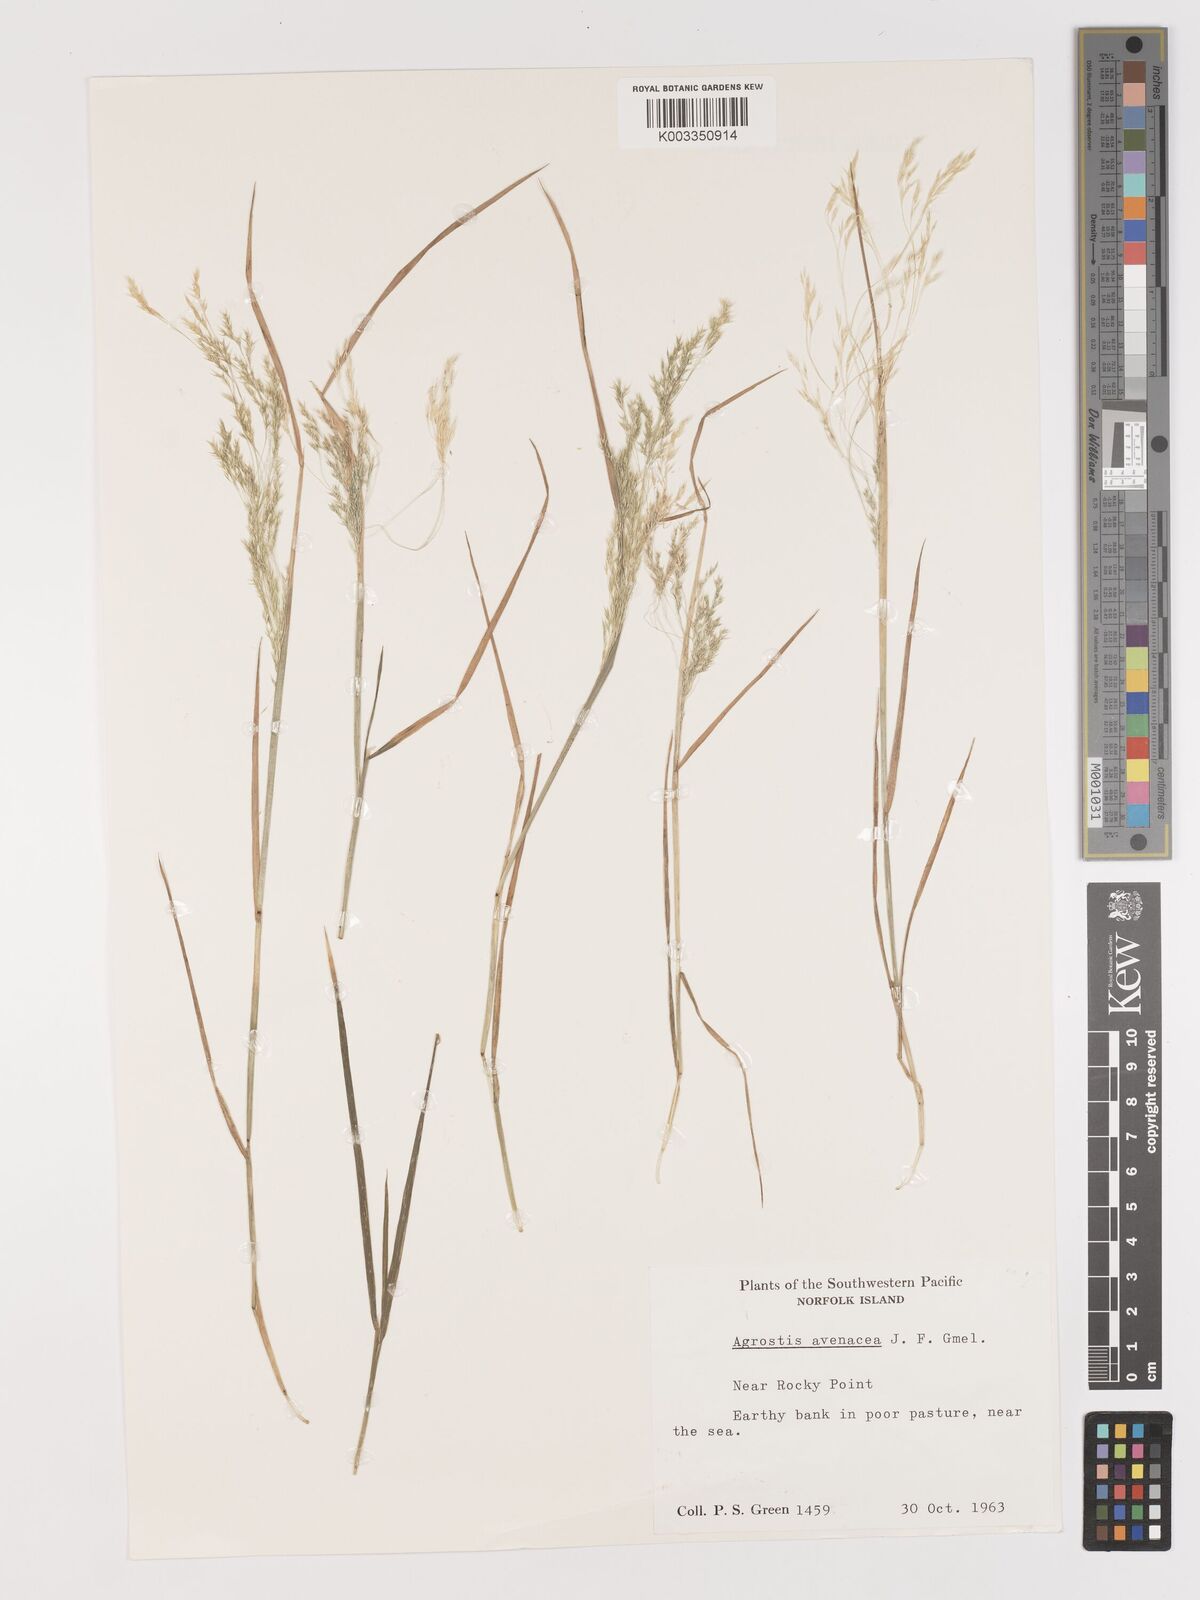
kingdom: Plantae
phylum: Tracheophyta
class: Liliopsida
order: Poales
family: Poaceae
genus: Lachnagrostis
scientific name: Lachnagrostis filiformis
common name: Bentgrass
